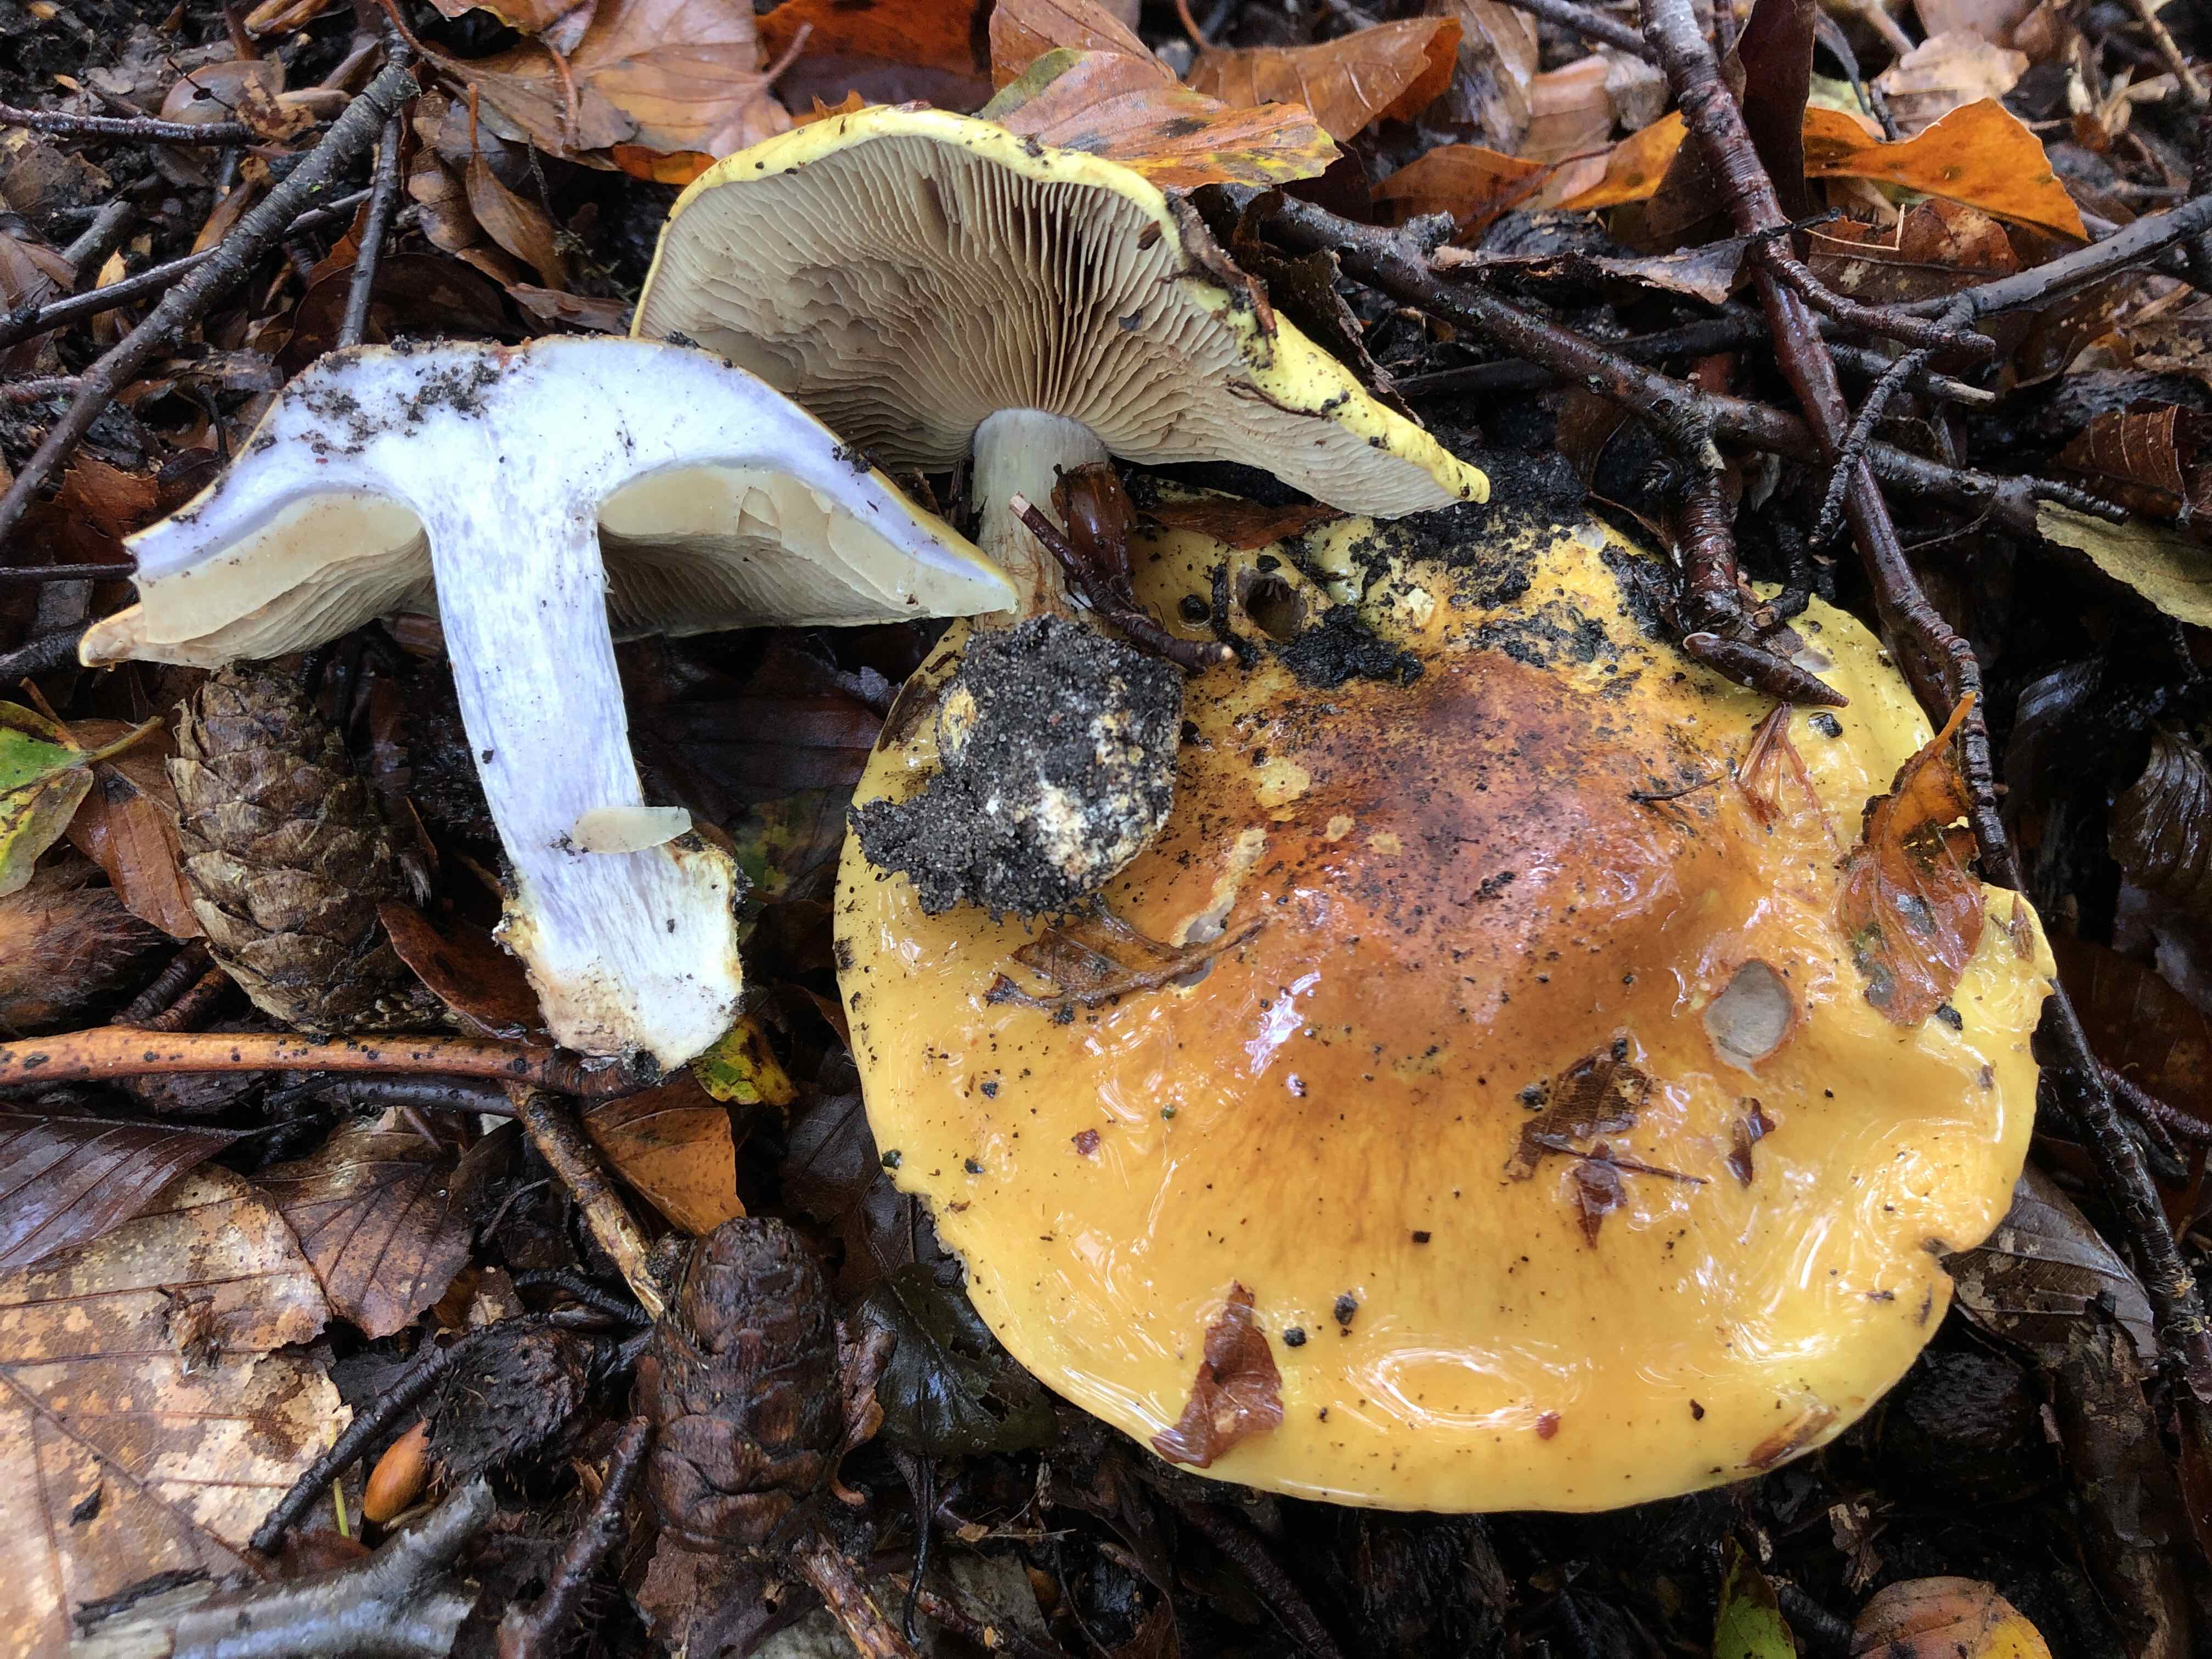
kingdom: Fungi
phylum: Basidiomycota
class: Agaricomycetes
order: Agaricales
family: Cortinariaceae
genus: Cortinarius
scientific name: Cortinarius bergeronii
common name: prægtig slørhat
